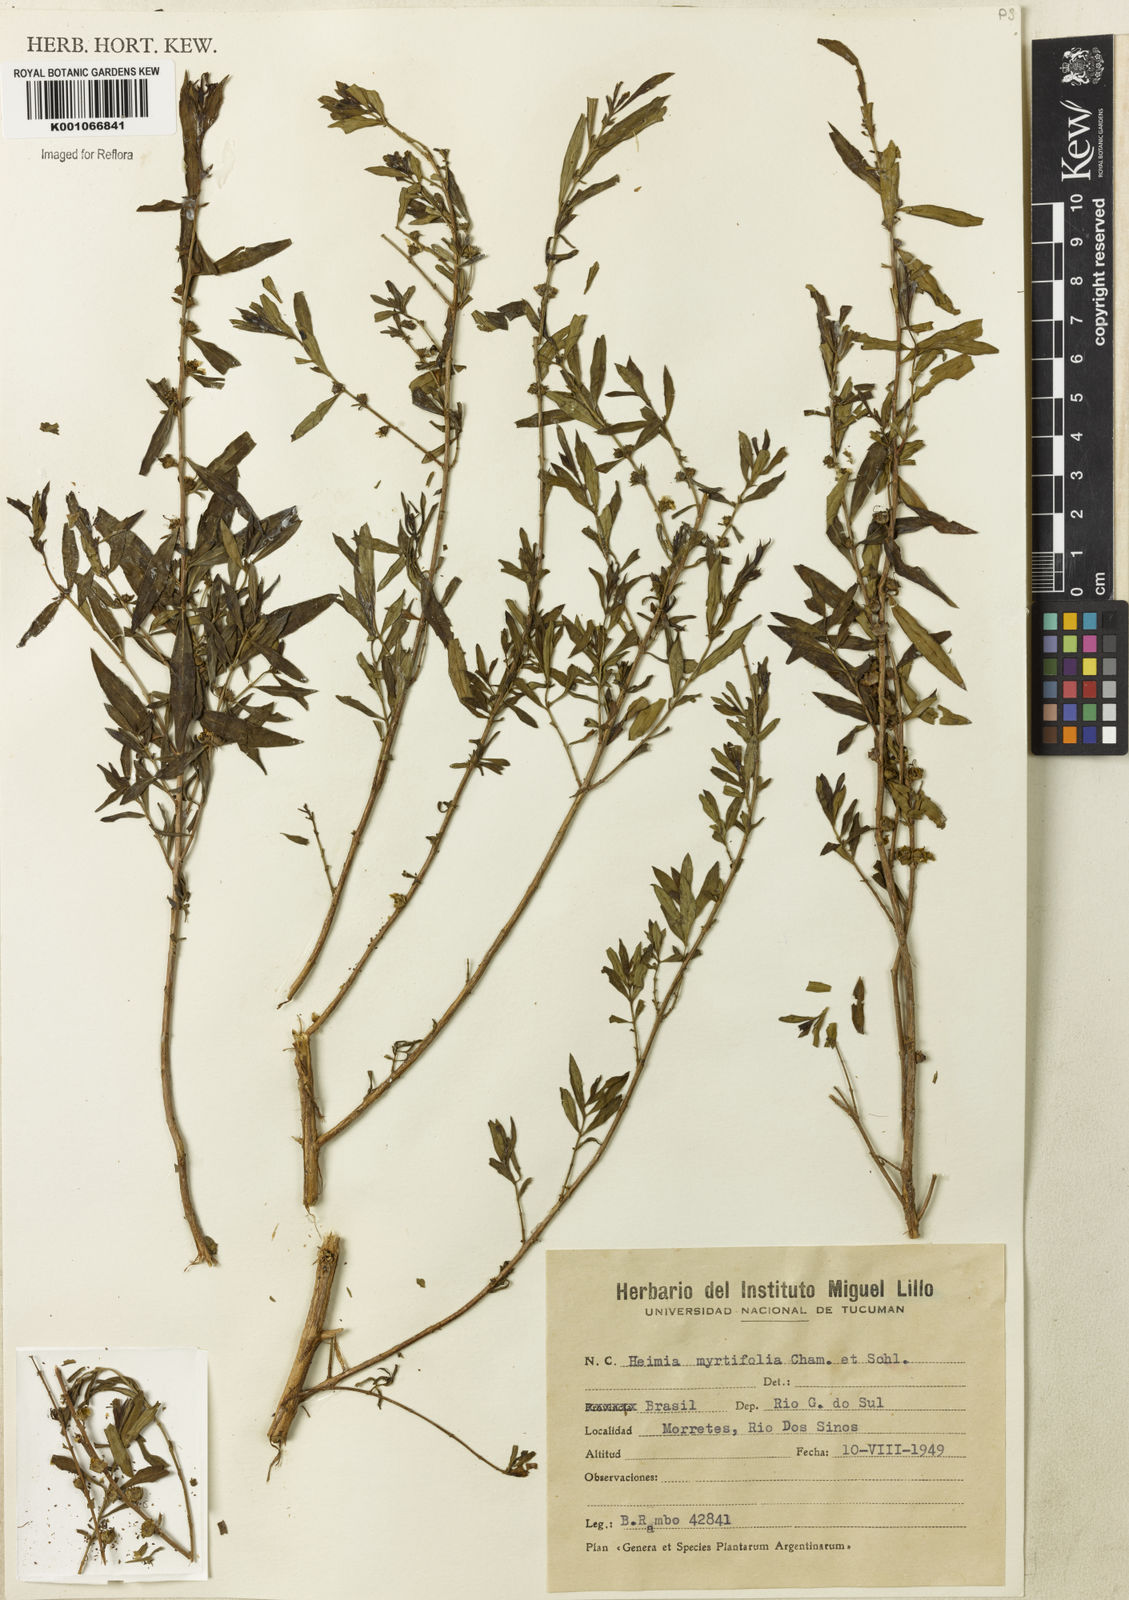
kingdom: Plantae
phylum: Tracheophyta
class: Magnoliopsida
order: Myrtales
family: Lythraceae
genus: Heimia
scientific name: Heimia apetala
